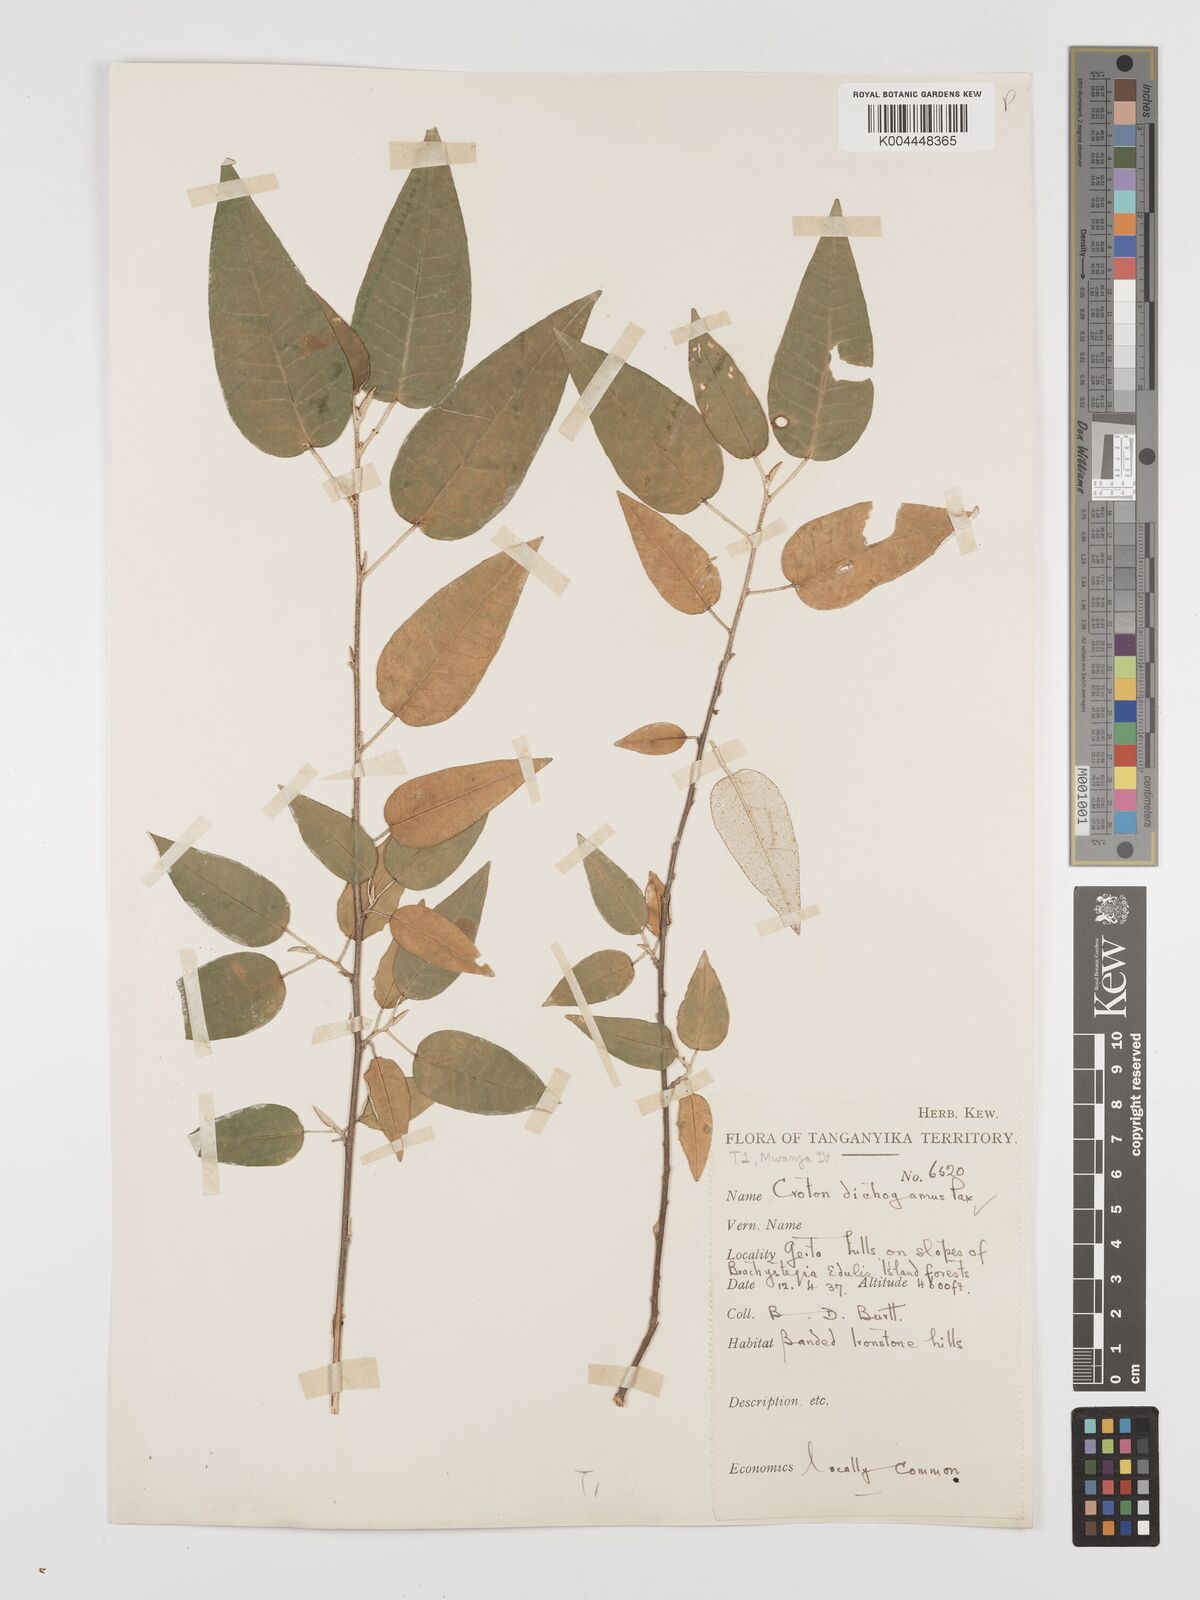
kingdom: Plantae
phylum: Tracheophyta
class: Magnoliopsida
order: Malpighiales
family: Euphorbiaceae
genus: Croton
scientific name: Croton dichogamus
